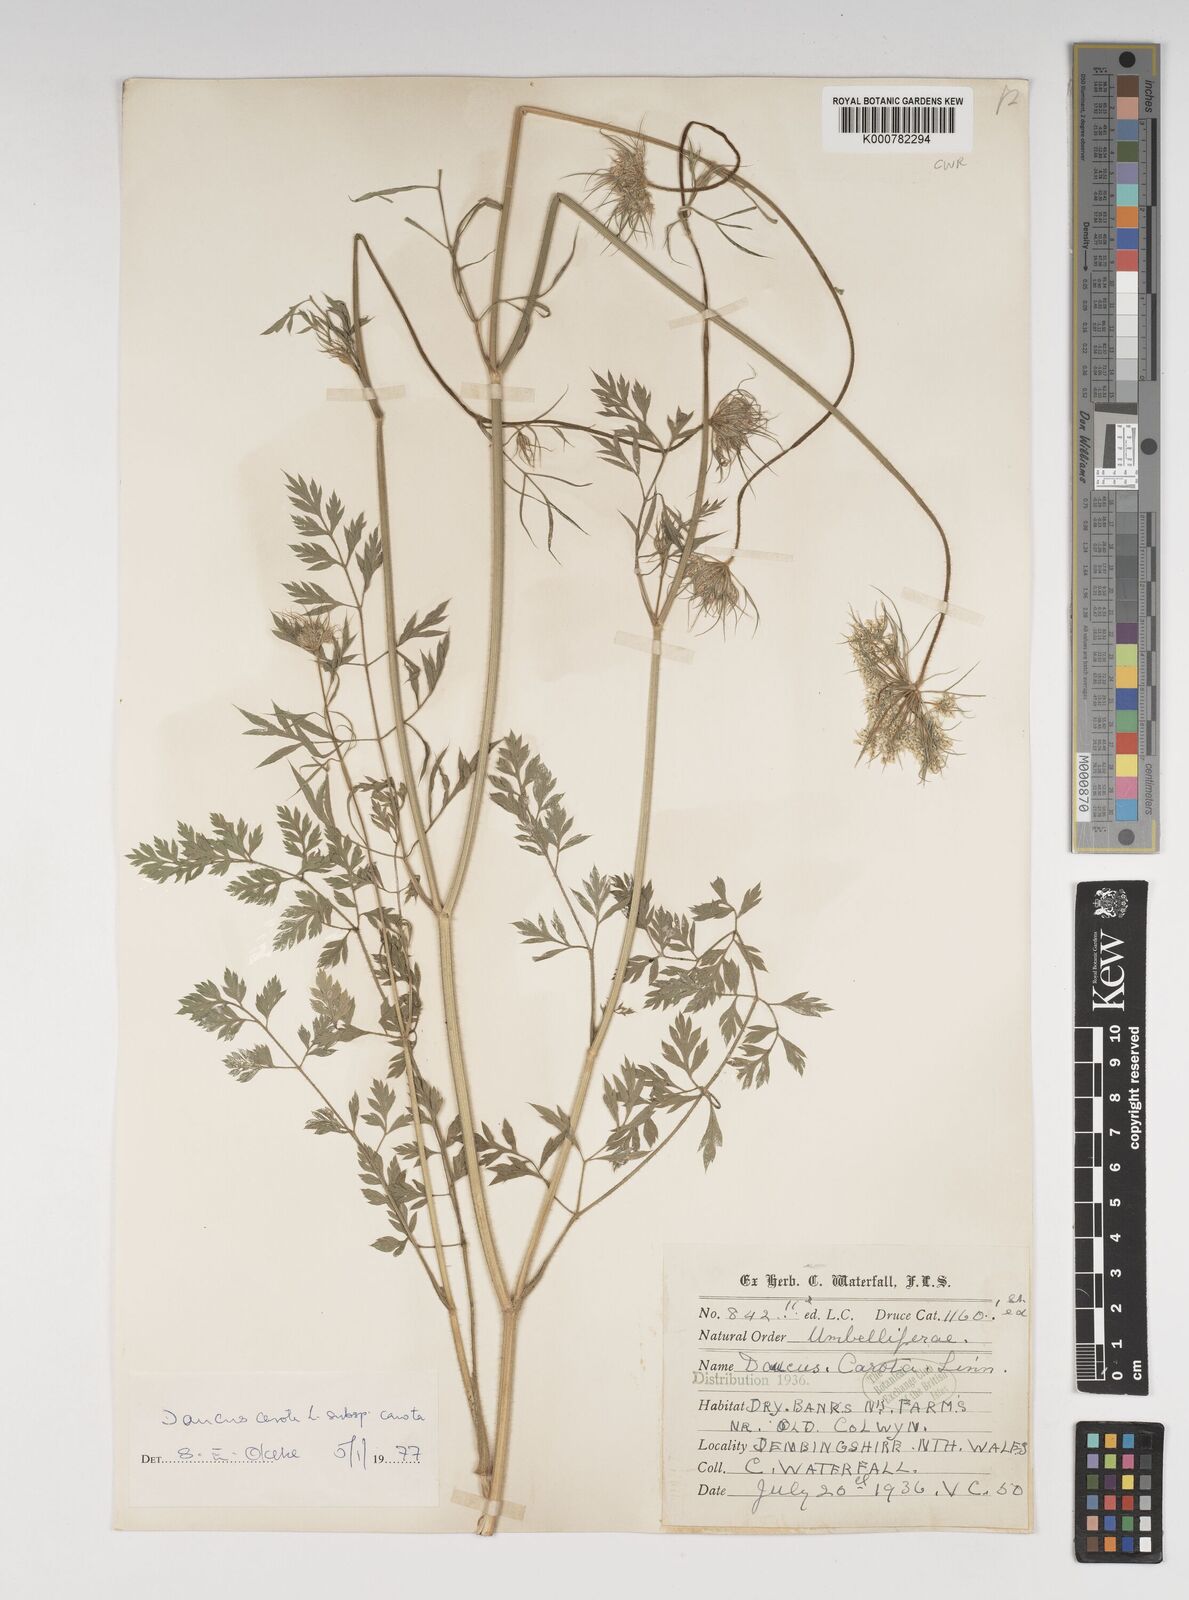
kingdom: Plantae
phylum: Tracheophyta
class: Magnoliopsida
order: Apiales
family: Apiaceae
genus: Daucus
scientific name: Daucus carota
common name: Wild carrot
